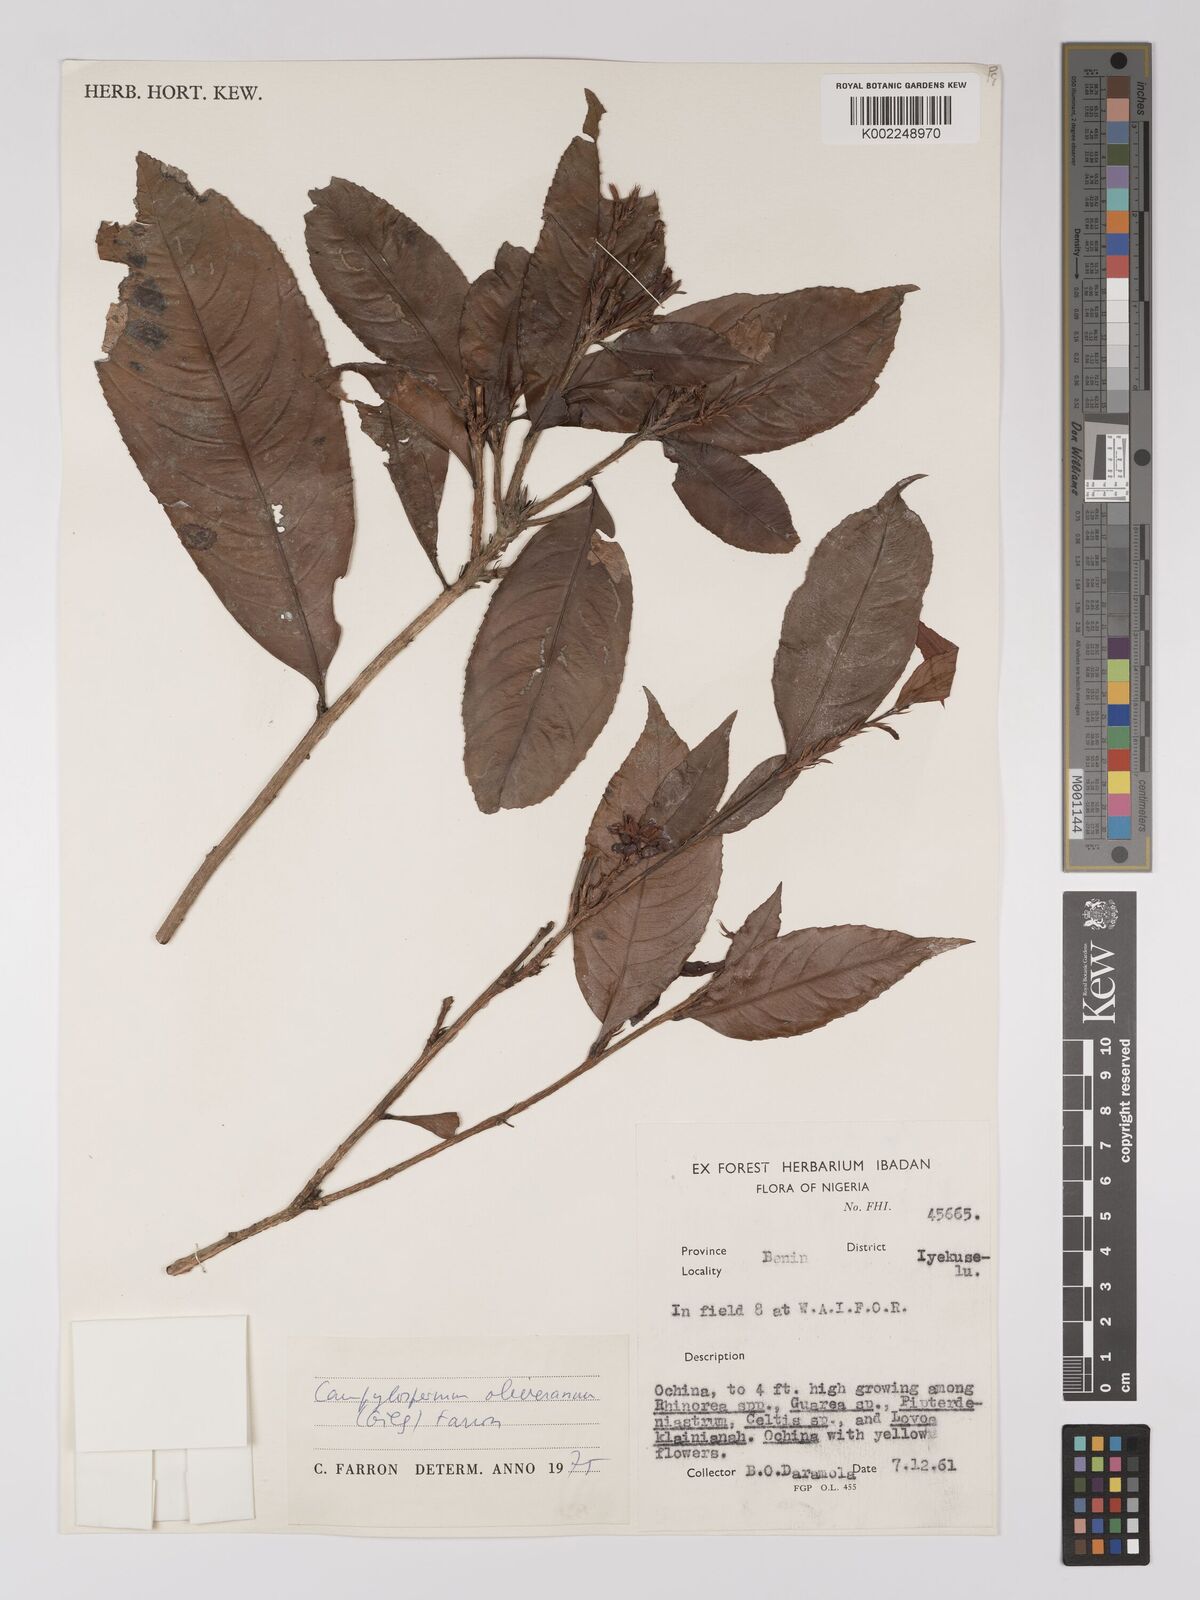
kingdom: Plantae
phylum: Tracheophyta
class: Magnoliopsida
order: Malpighiales
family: Ochnaceae
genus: Campylospermum
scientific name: Campylospermum oliverianum
